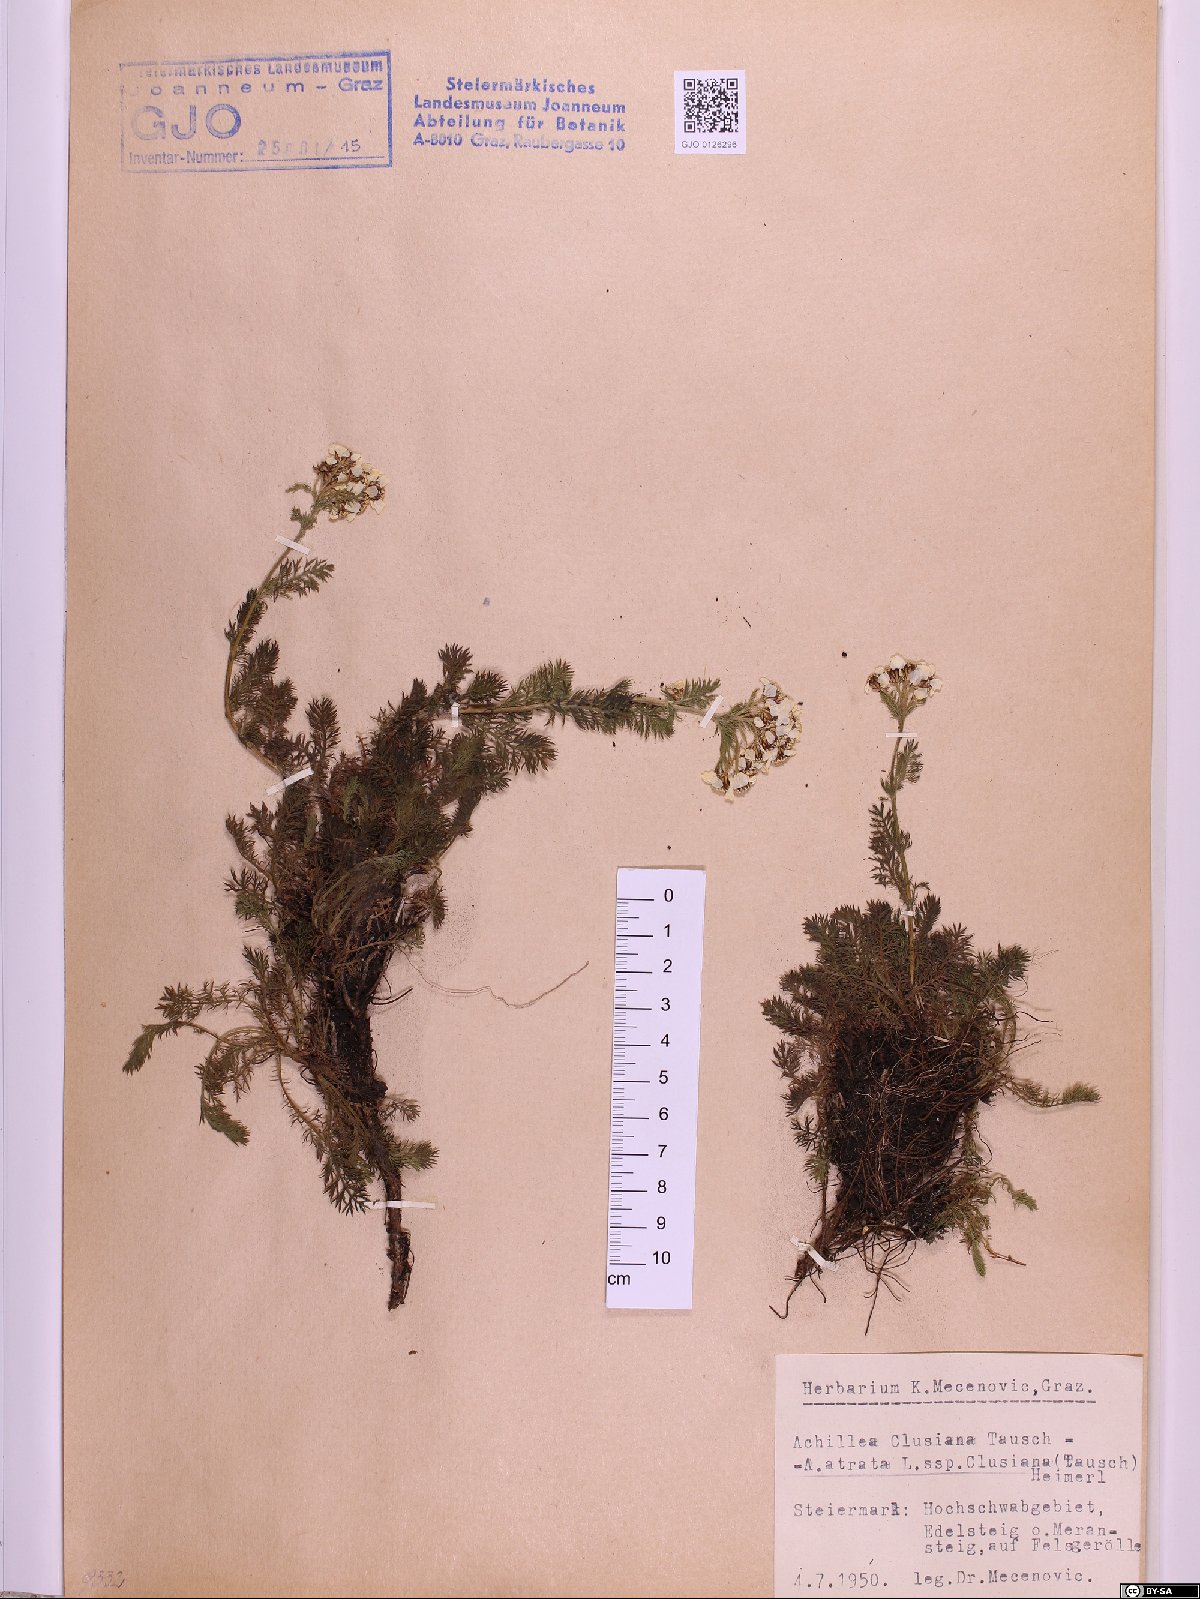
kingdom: Plantae
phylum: Tracheophyta
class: Magnoliopsida
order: Asterales
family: Asteraceae
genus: Achillea
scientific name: Achillea clusiana
